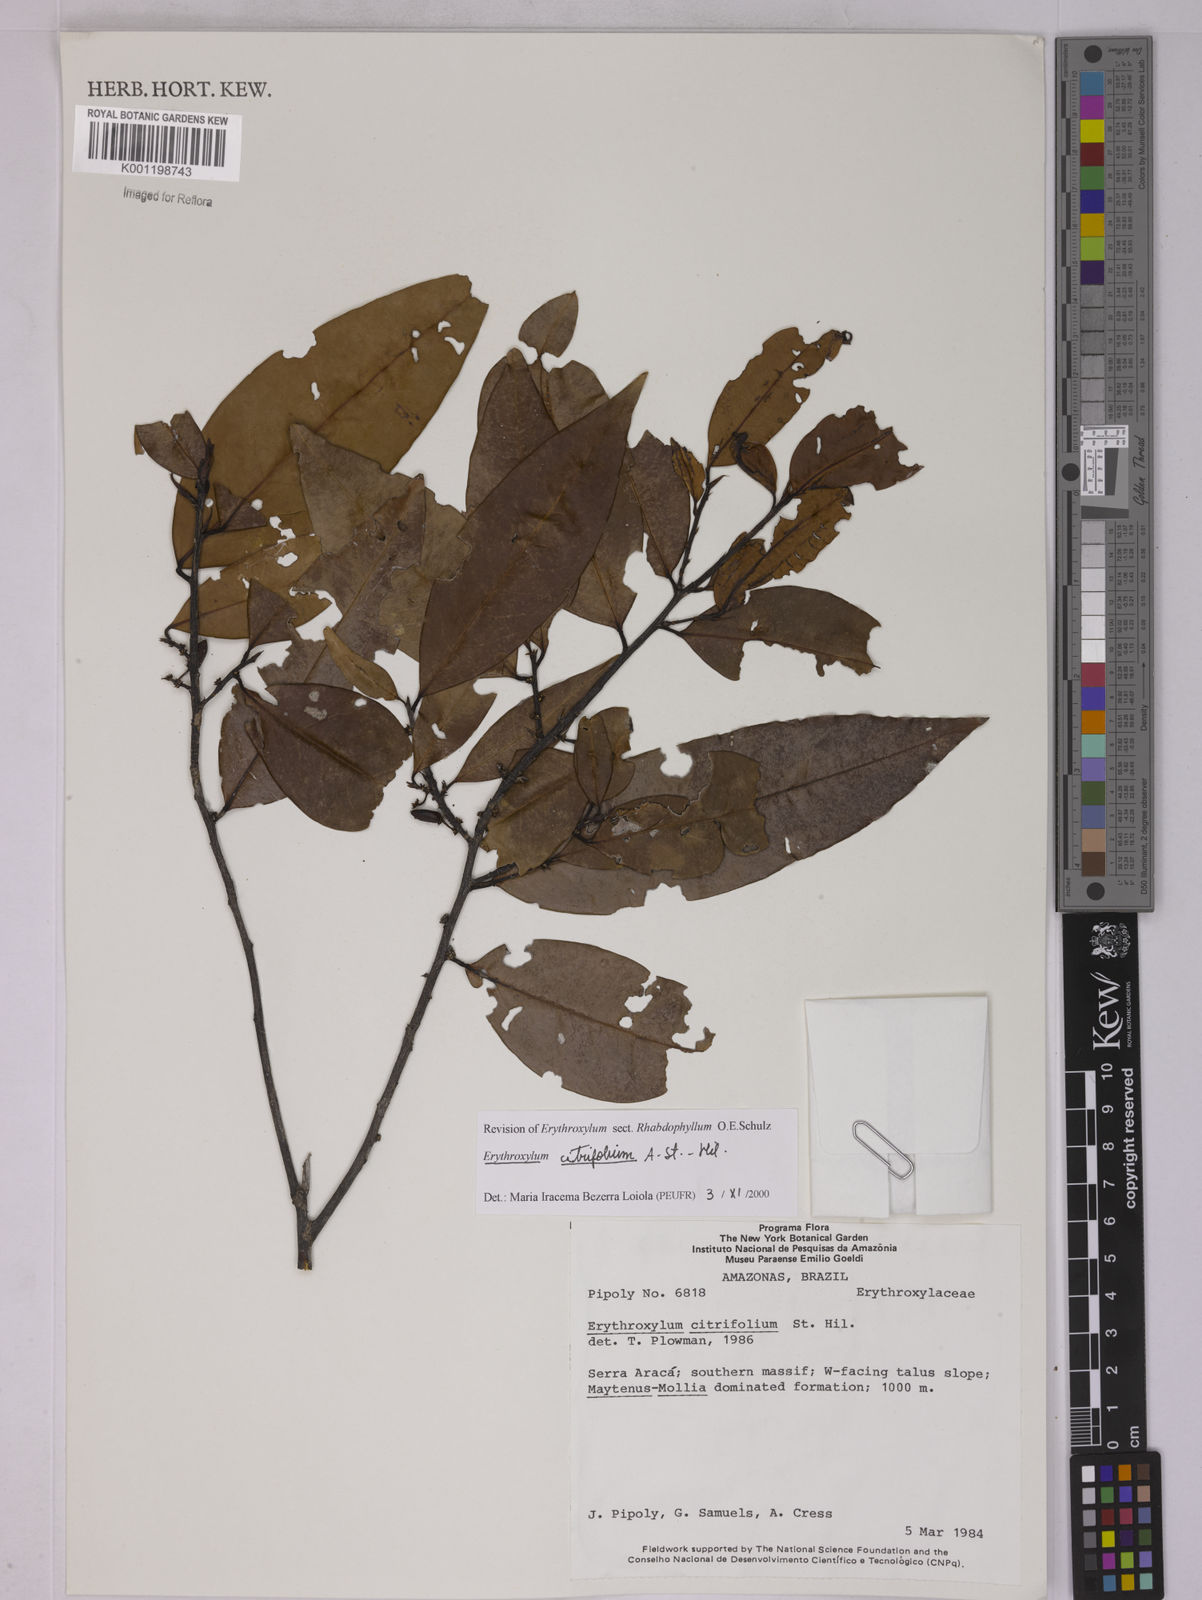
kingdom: Plantae
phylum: Tracheophyta
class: Magnoliopsida
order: Malpighiales
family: Erythroxylaceae
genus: Erythroxylum
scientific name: Erythroxylum citrifolium
